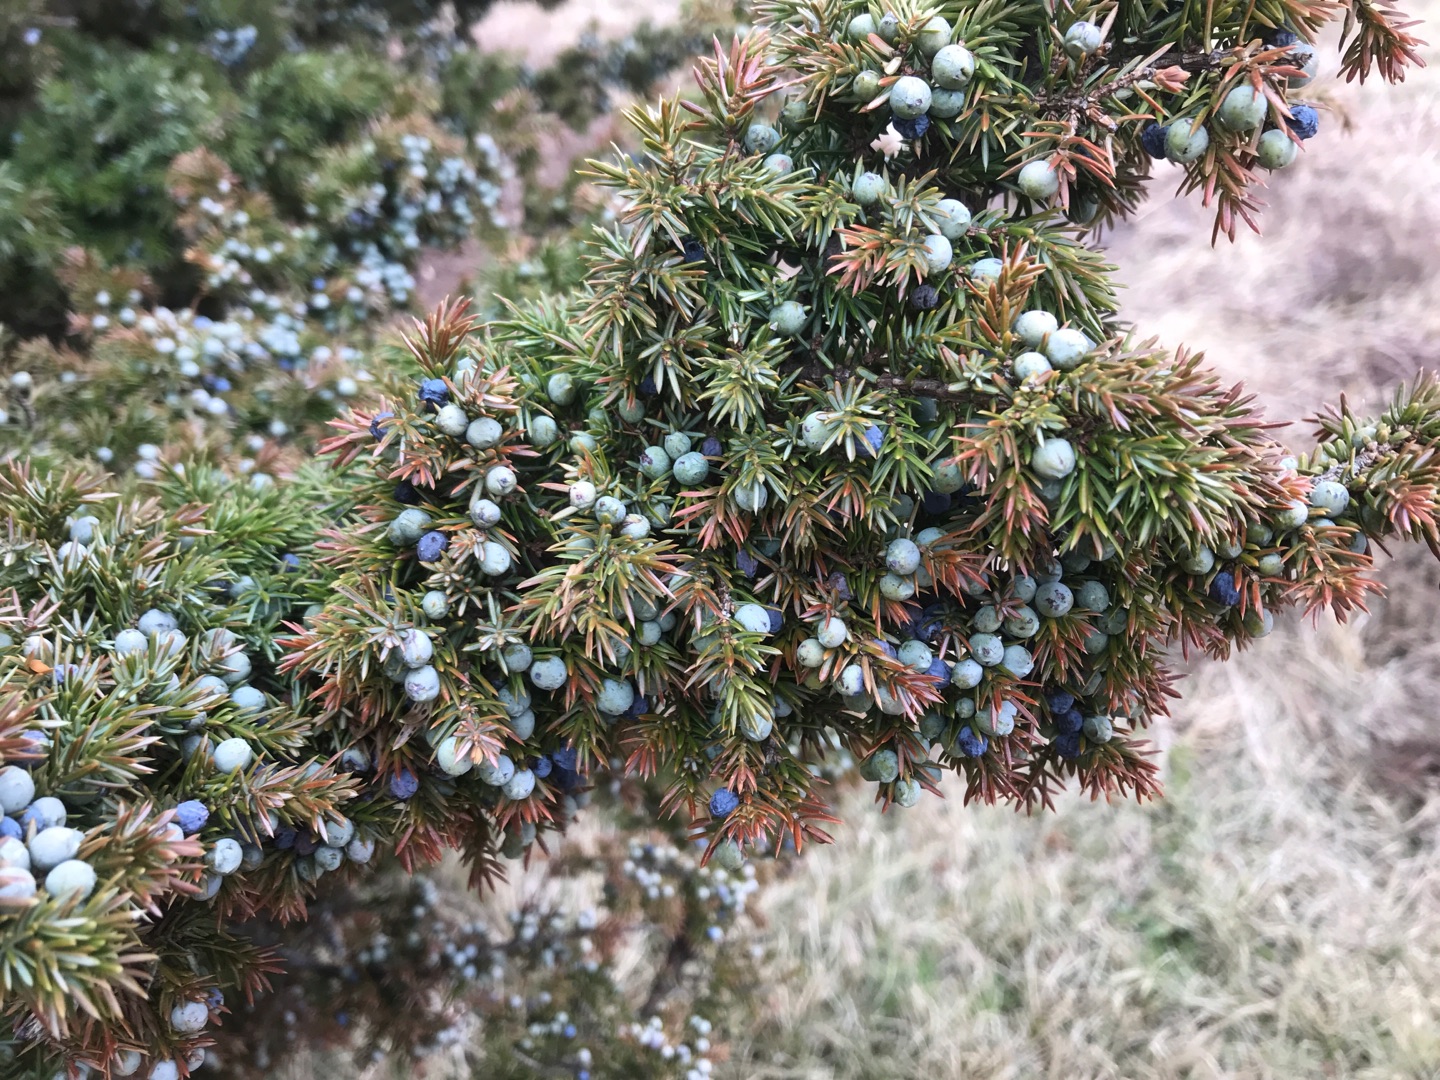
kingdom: Plantae
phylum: Tracheophyta
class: Pinopsida
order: Pinales
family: Cupressaceae
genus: Juniperus
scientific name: Juniperus communis
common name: Almindelig ene
